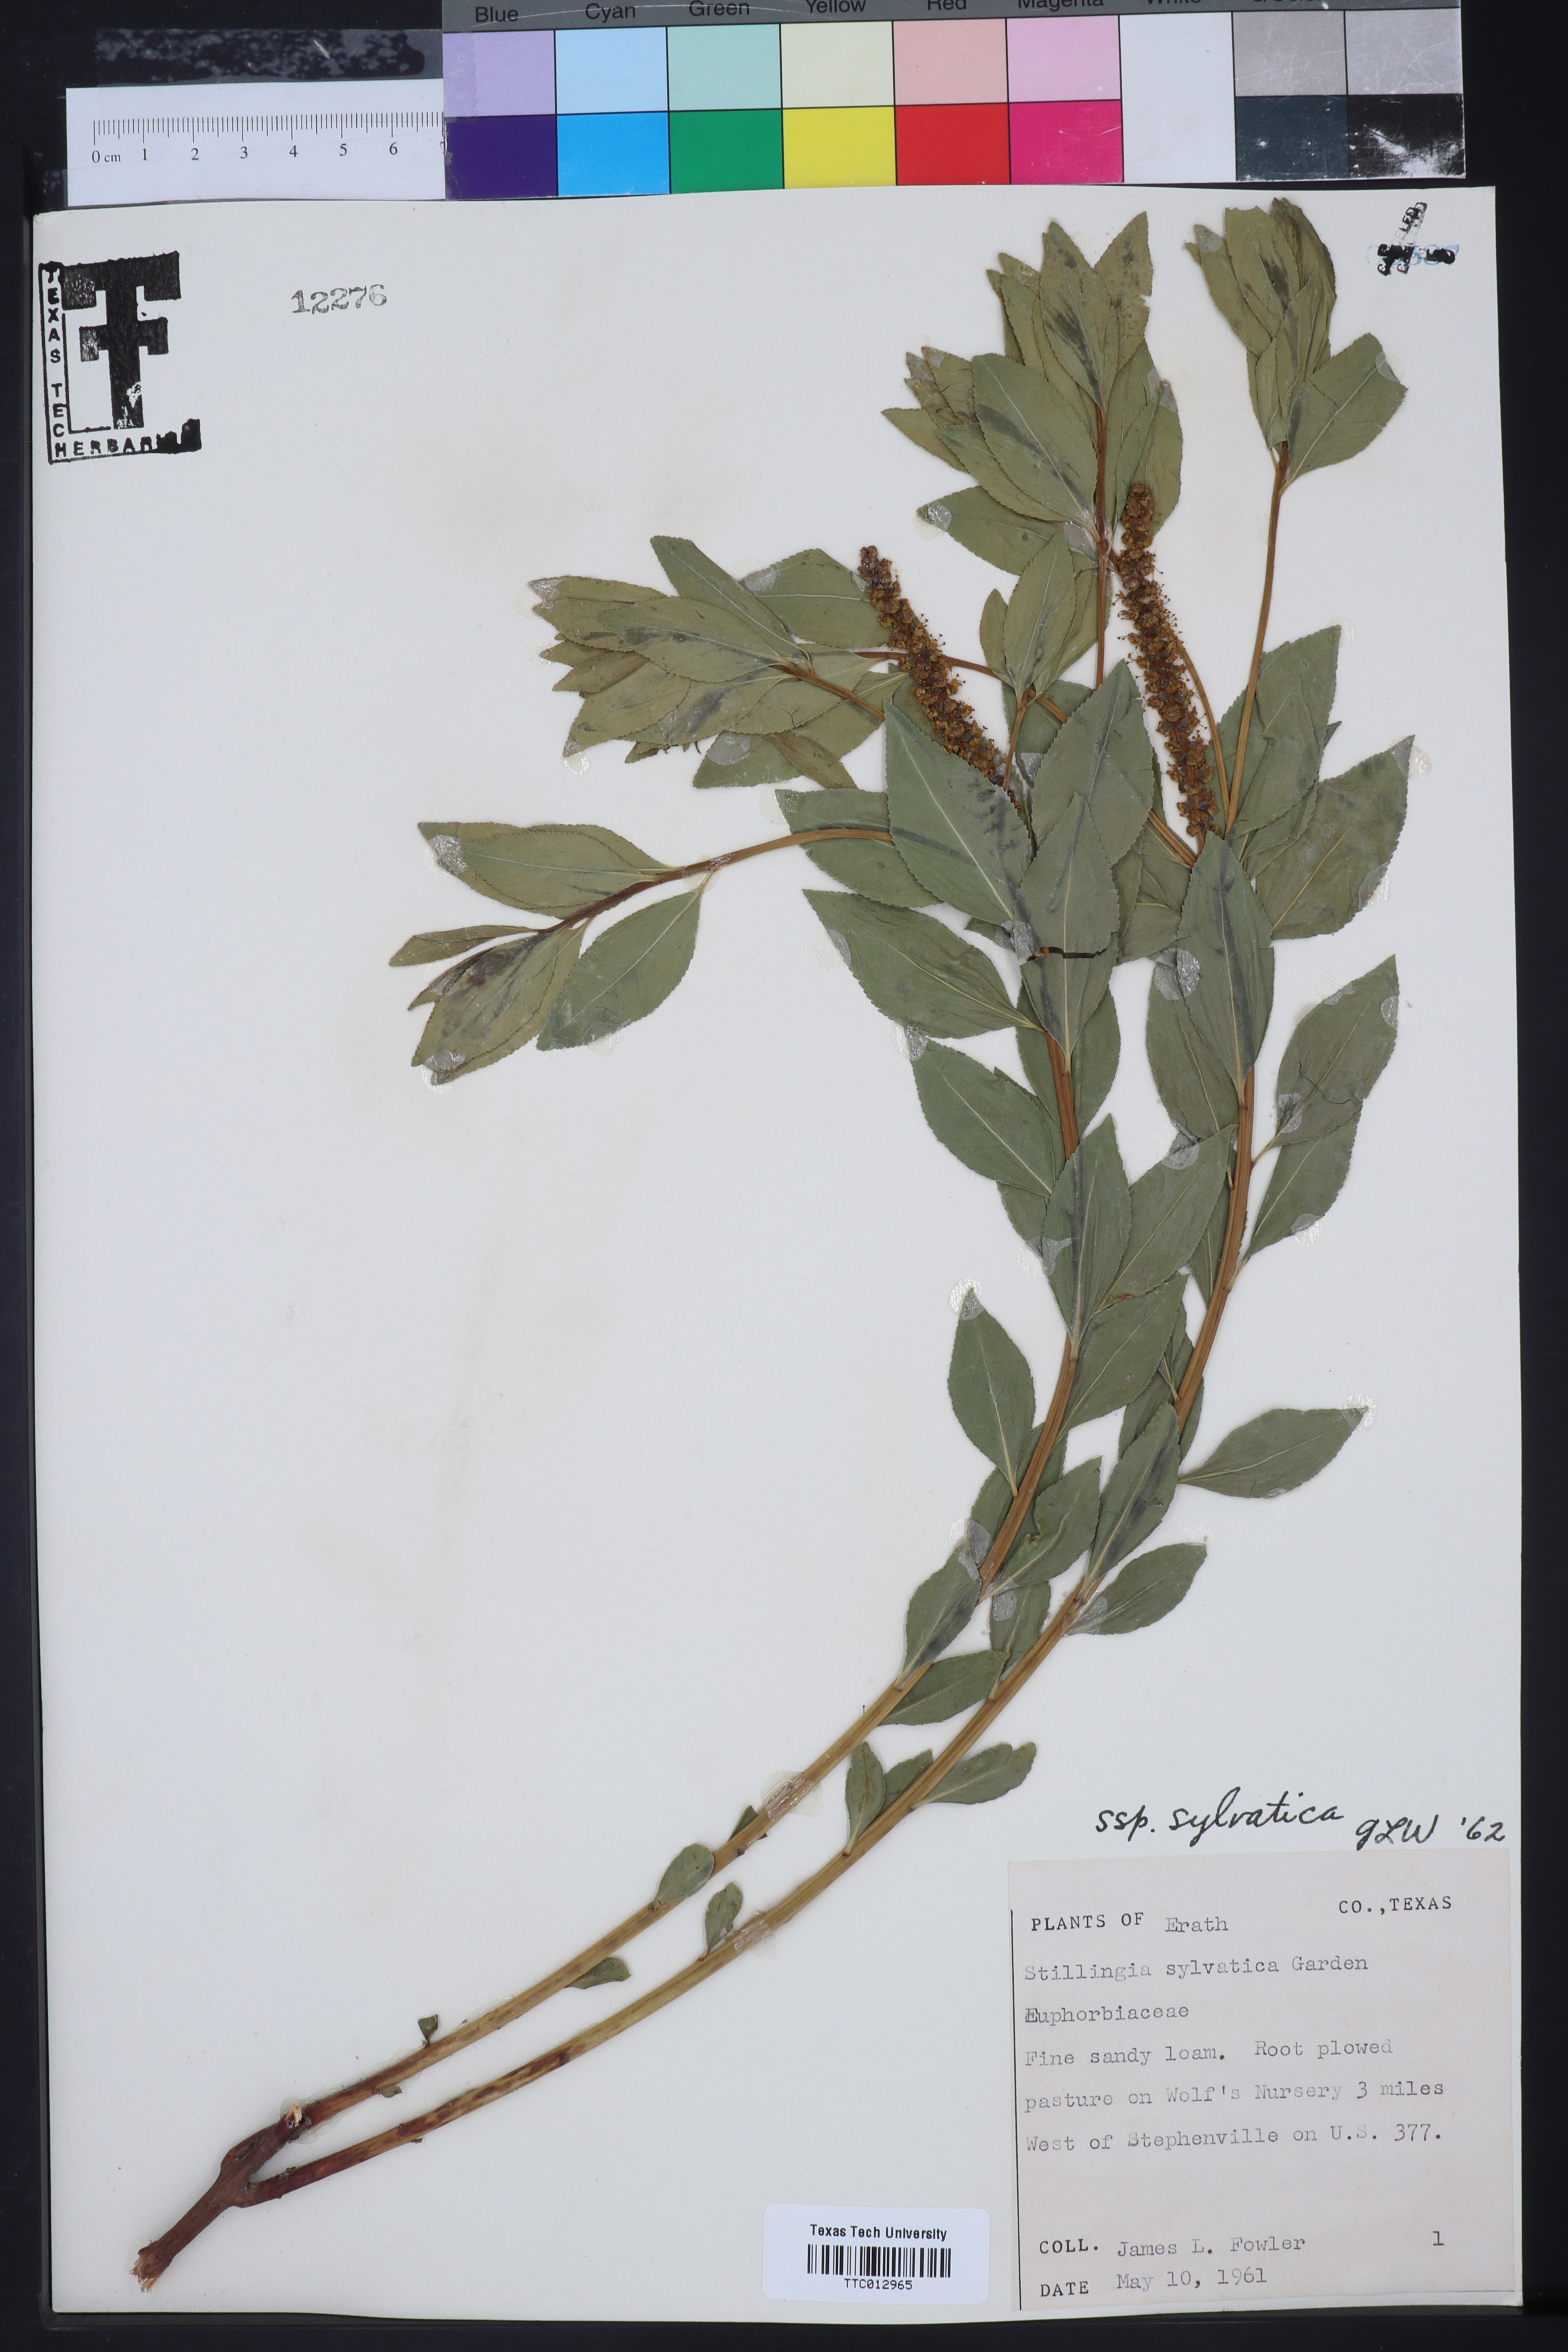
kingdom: Plantae
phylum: Tracheophyta
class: Magnoliopsida
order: Malpighiales
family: Euphorbiaceae
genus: Stillingia
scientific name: Stillingia sylvatica
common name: Queen's-delight
